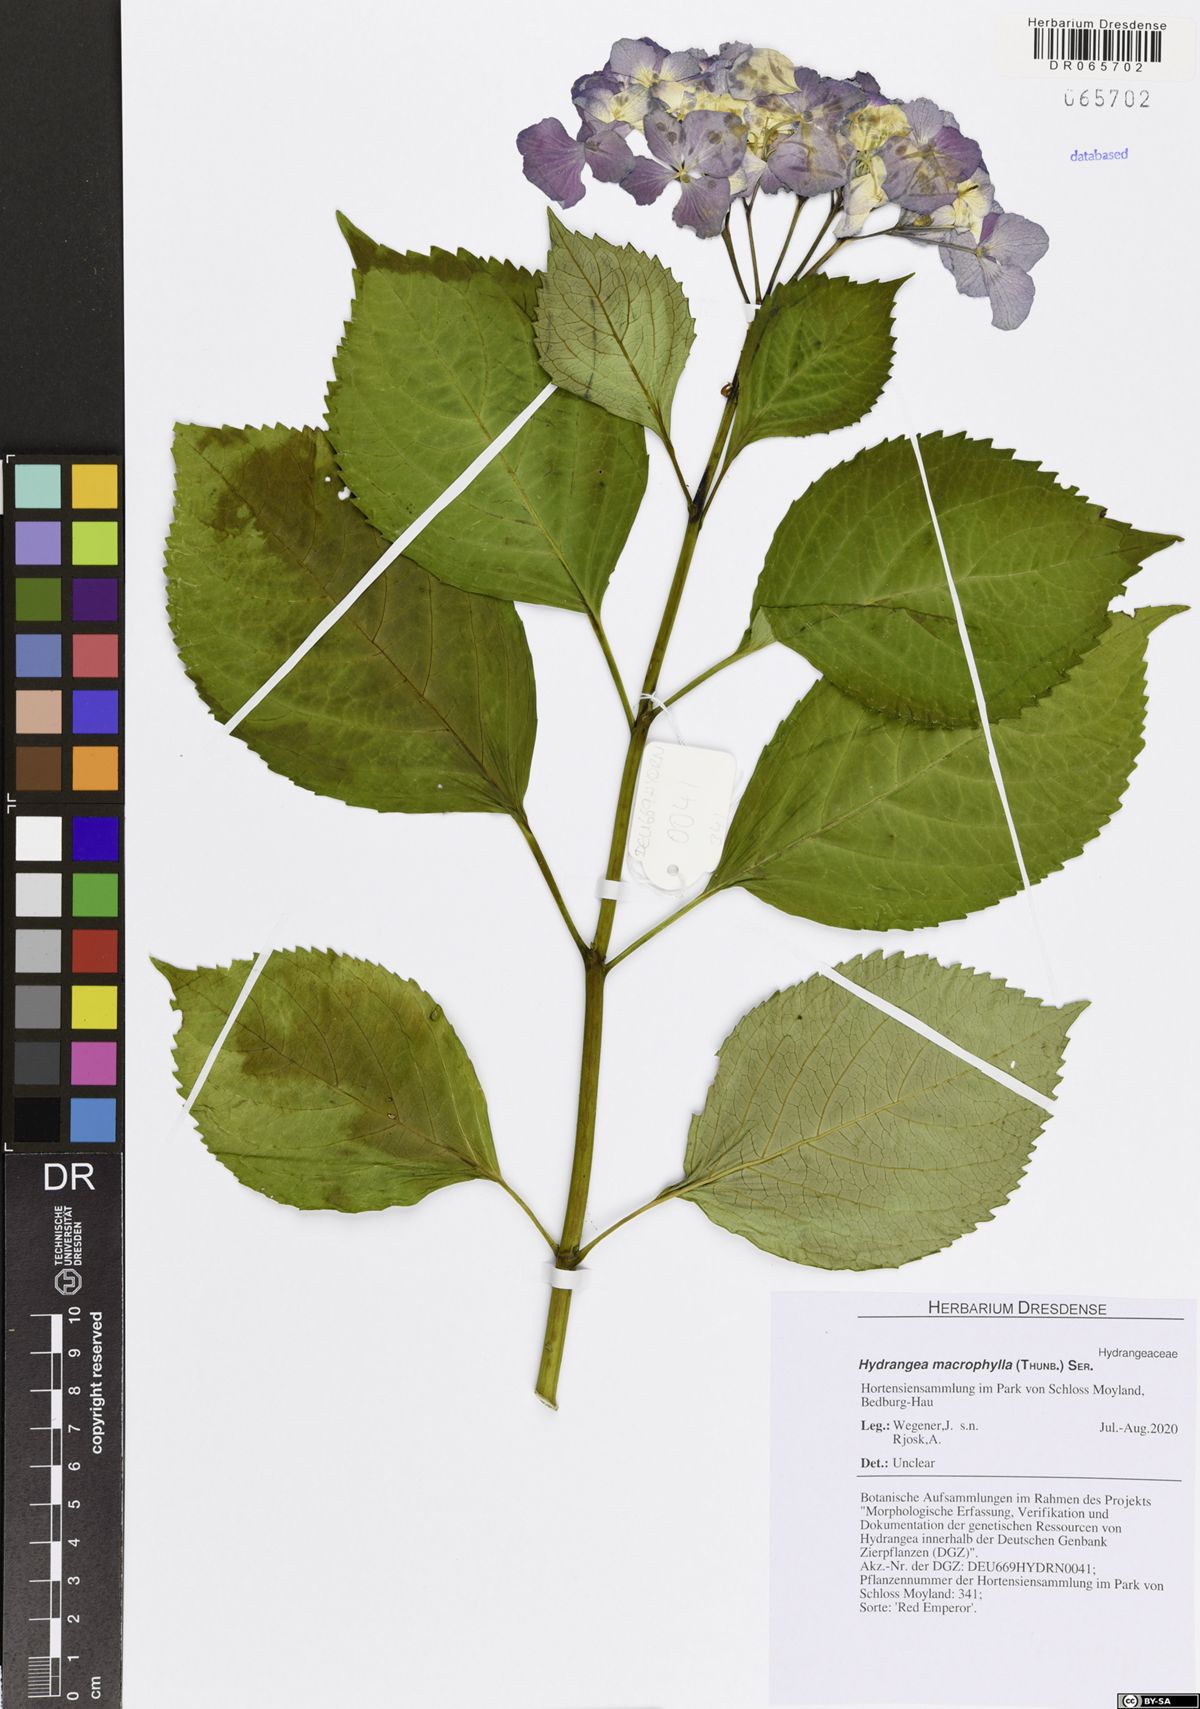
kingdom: Plantae
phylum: Tracheophyta
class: Magnoliopsida
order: Cornales
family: Hydrangeaceae
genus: Hydrangea
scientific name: Hydrangea macrophylla
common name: Hydrangea
